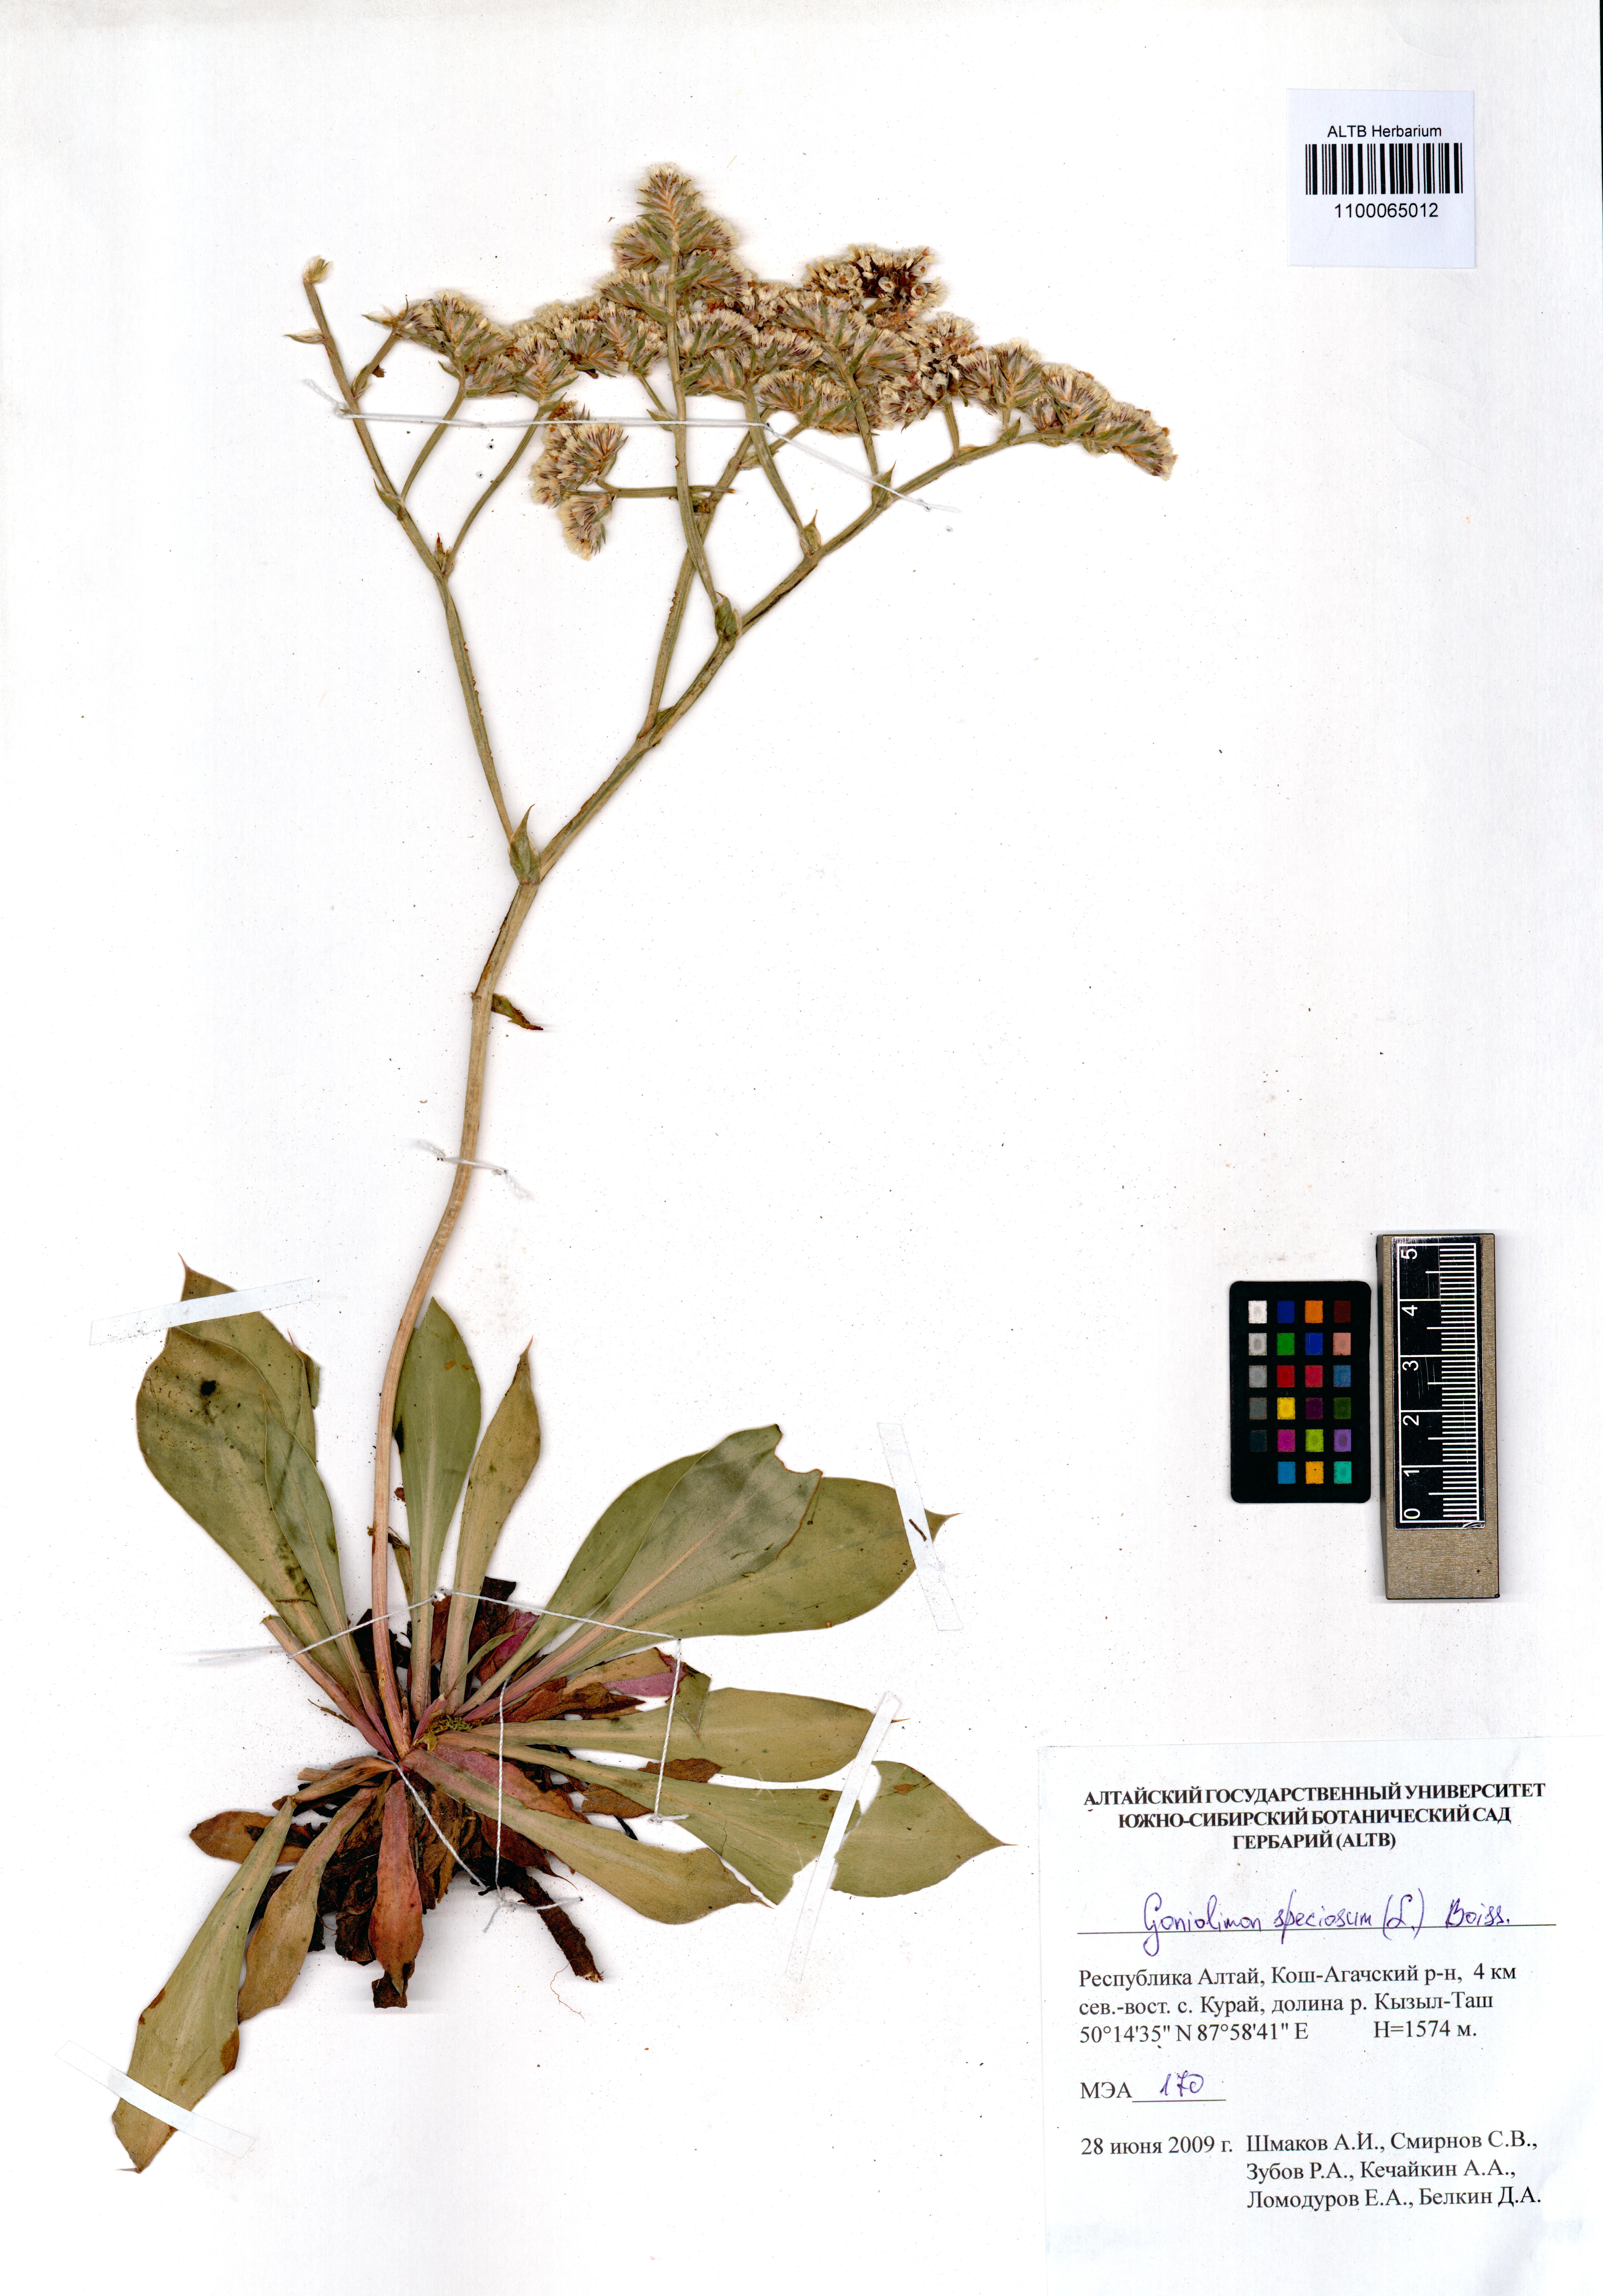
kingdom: Plantae
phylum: Tracheophyta
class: Magnoliopsida
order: Caryophyllales
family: Plumbaginaceae
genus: Goniolimon
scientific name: Goniolimon speciosum
